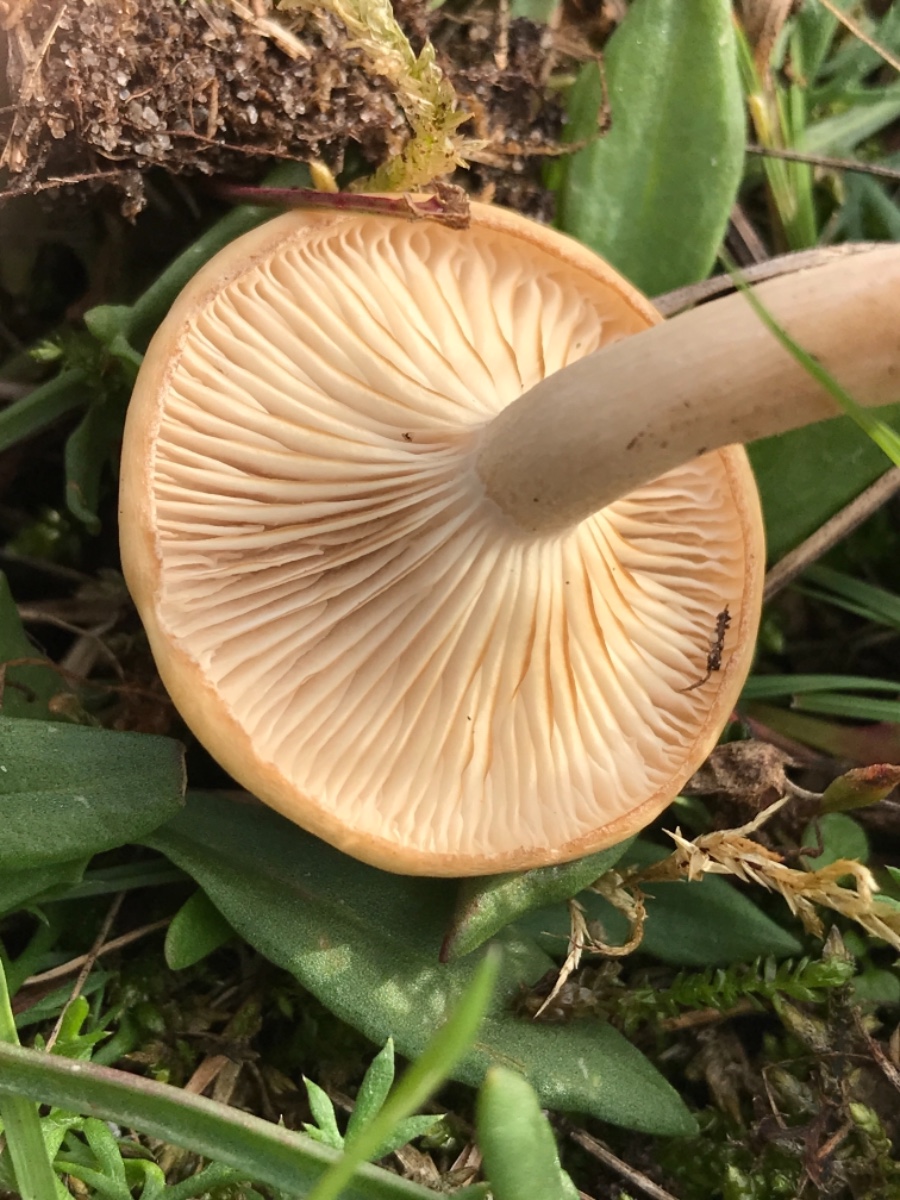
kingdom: Fungi
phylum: Basidiomycota
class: Agaricomycetes
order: Agaricales
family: Tricholomataceae
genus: Clitocybe
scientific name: Clitocybe
